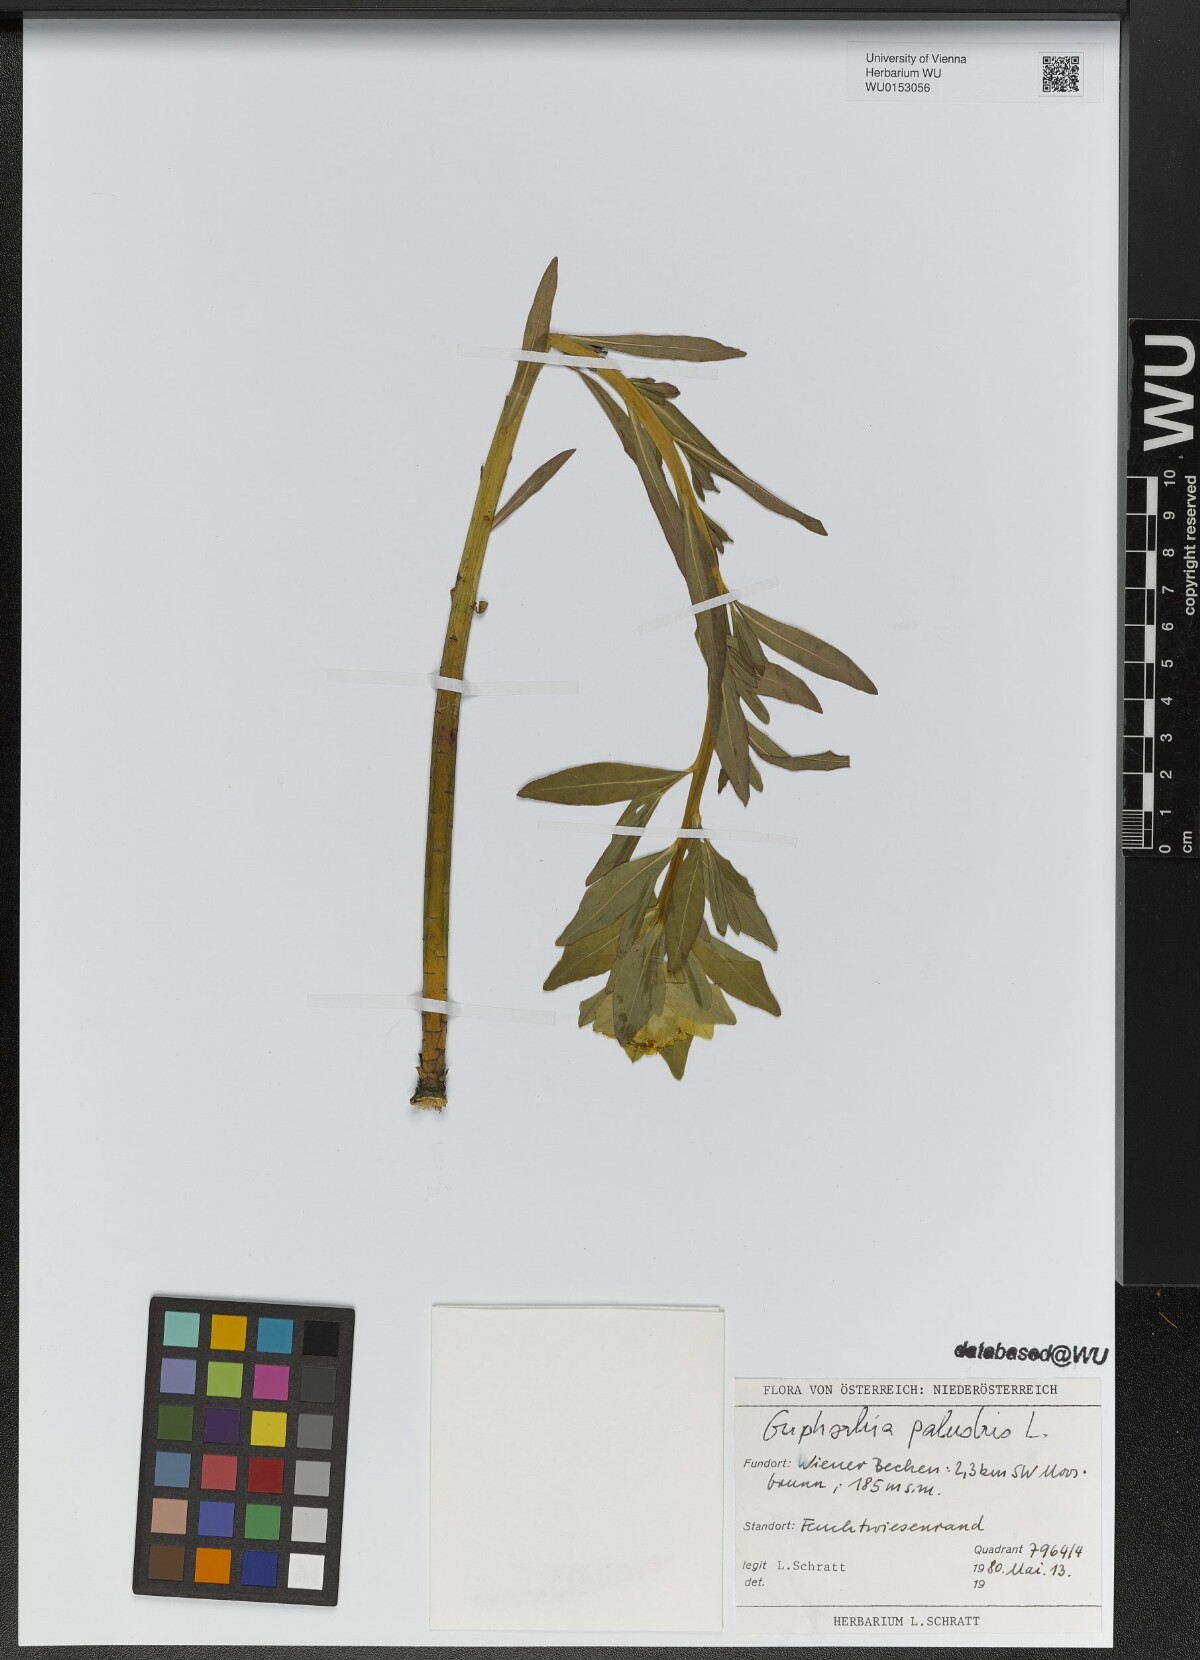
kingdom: Plantae
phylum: Tracheophyta
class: Magnoliopsida
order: Malpighiales
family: Euphorbiaceae
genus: Euphorbia
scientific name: Euphorbia palustris
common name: Marsh spurge
